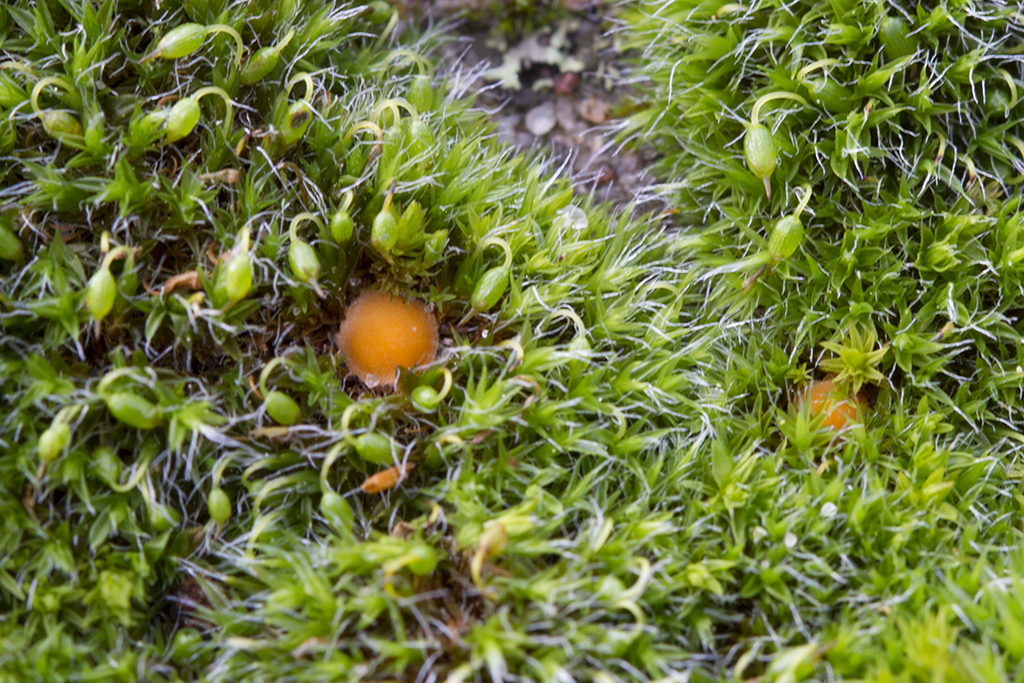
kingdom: Fungi
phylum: Ascomycota
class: Pezizomycetes
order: Pezizales
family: Pyronemataceae
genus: Octospora
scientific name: Octospora musci-muralis
